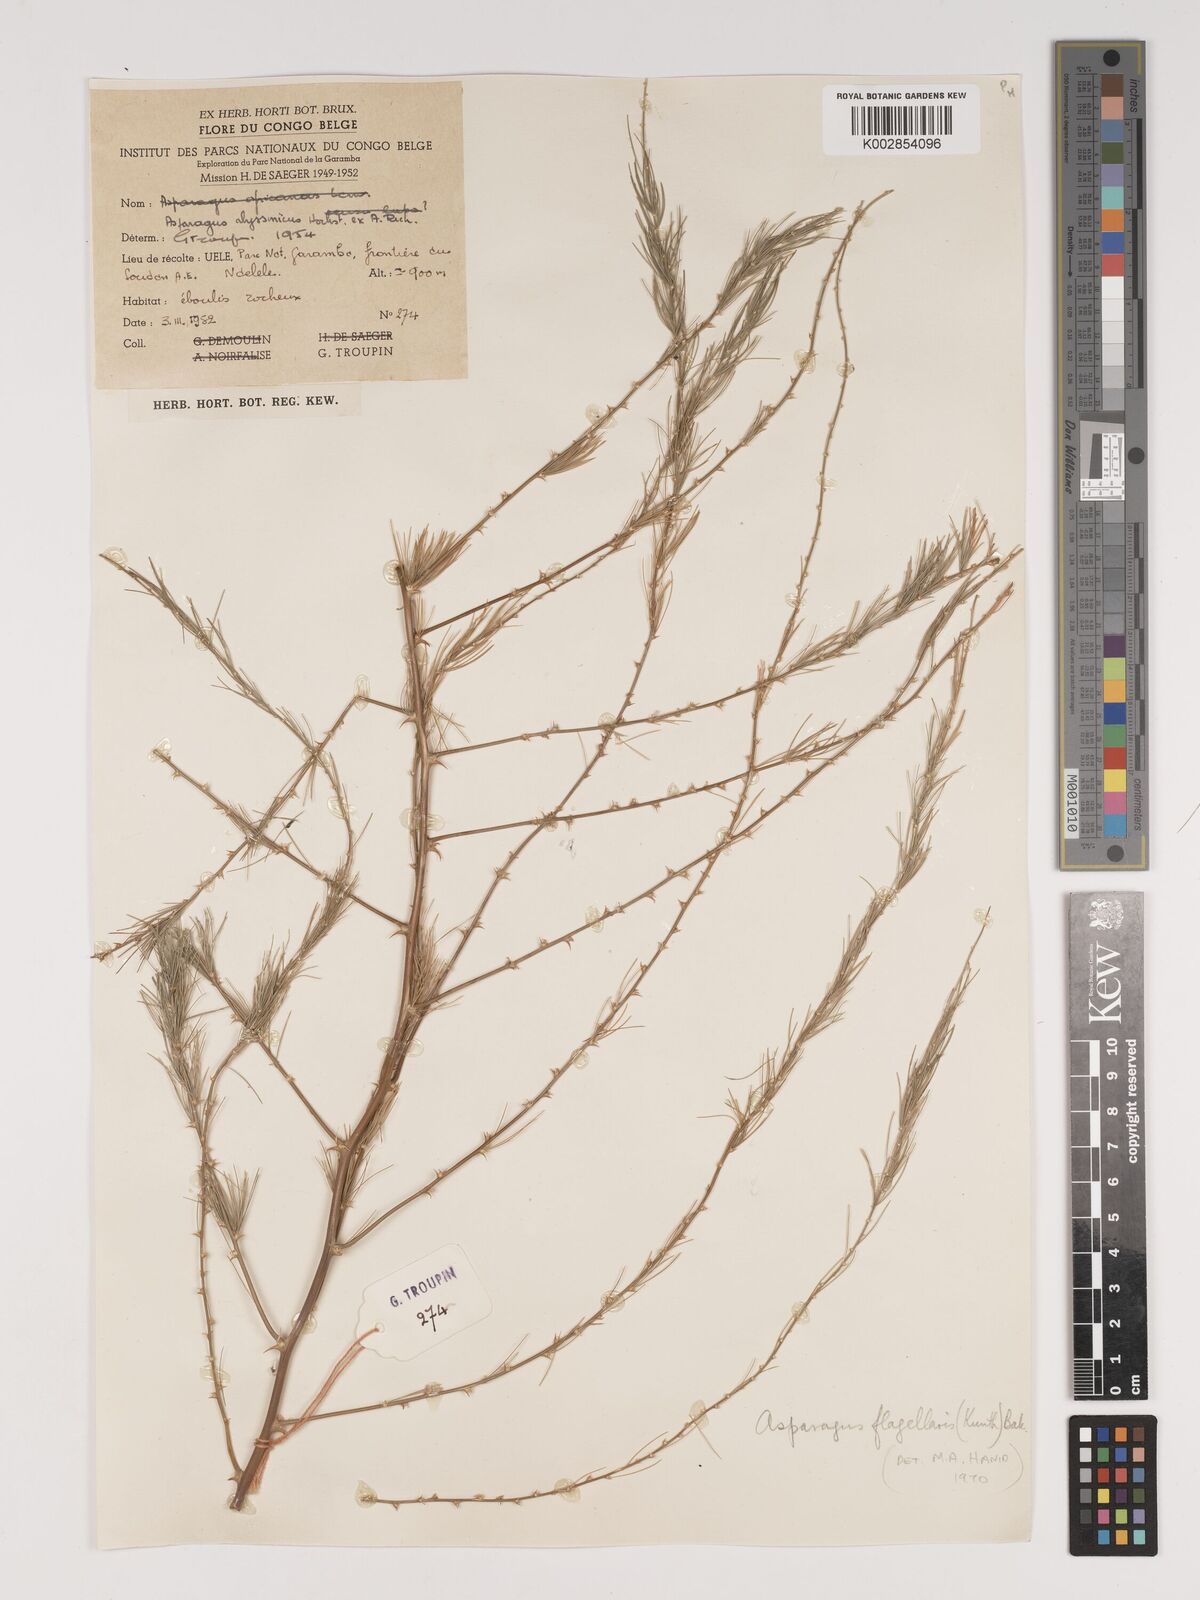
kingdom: Plantae
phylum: Tracheophyta
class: Liliopsida
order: Asparagales
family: Asparagaceae
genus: Asparagus
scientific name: Asparagus flagellaris
